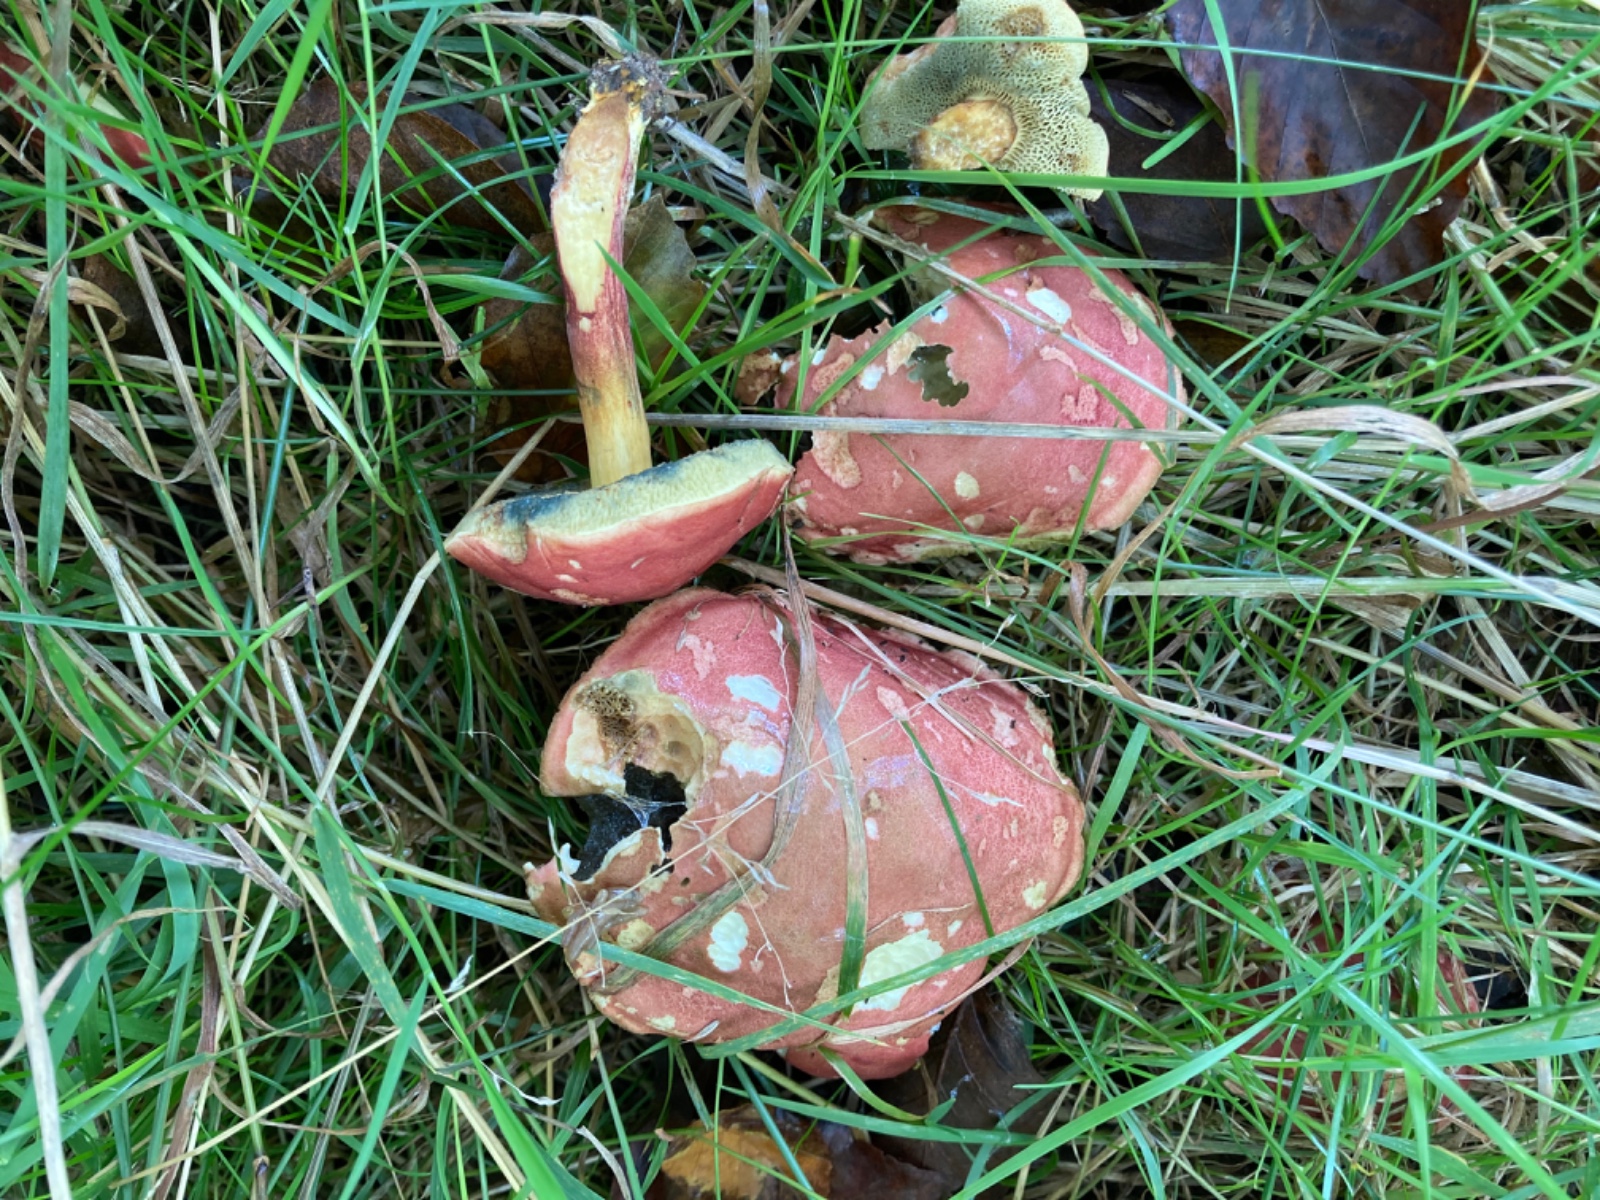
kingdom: Fungi
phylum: Basidiomycota
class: Agaricomycetes
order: Boletales
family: Boletaceae
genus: Hortiboletus
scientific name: Hortiboletus rubellus
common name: blodrød rørhat
